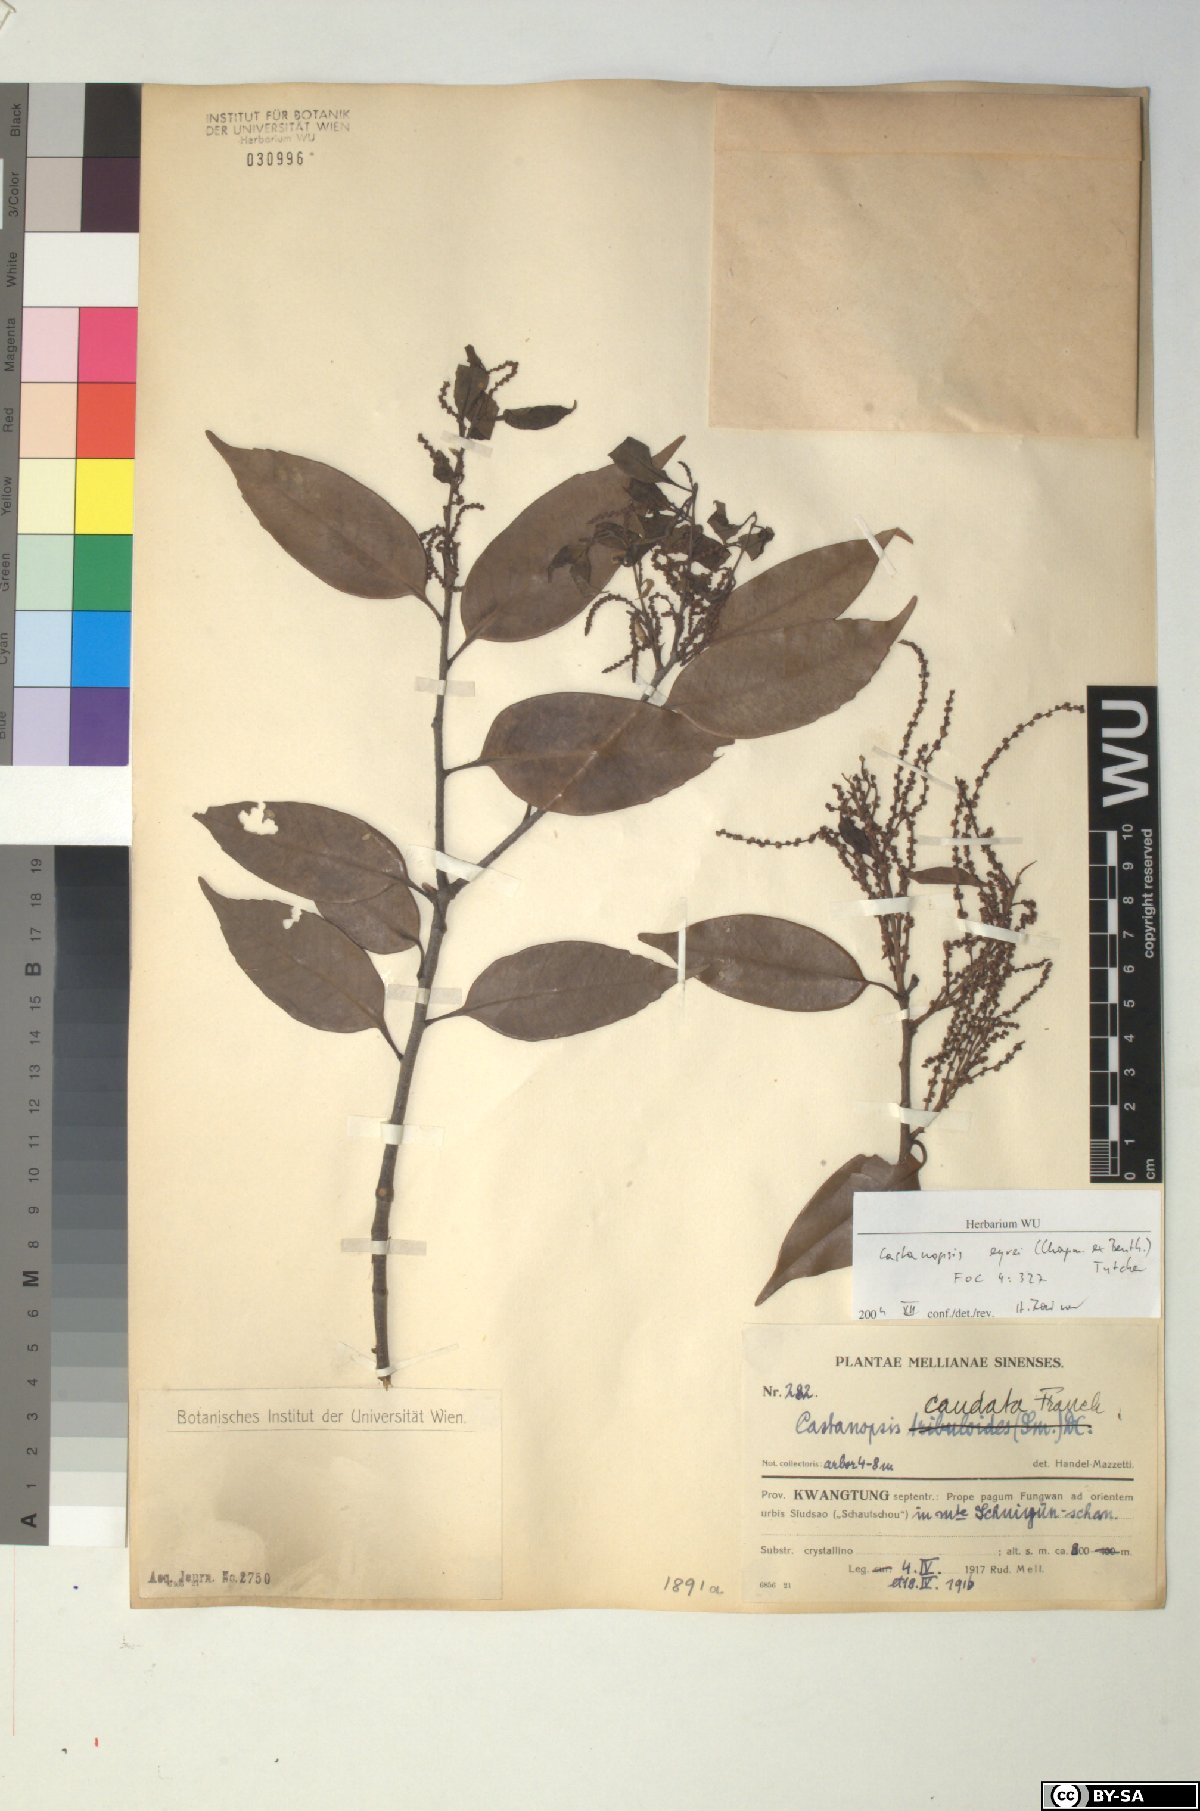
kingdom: Plantae
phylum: Tracheophyta
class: Magnoliopsida
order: Fagales
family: Fagaceae
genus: Castanopsis
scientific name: Castanopsis eyrei
